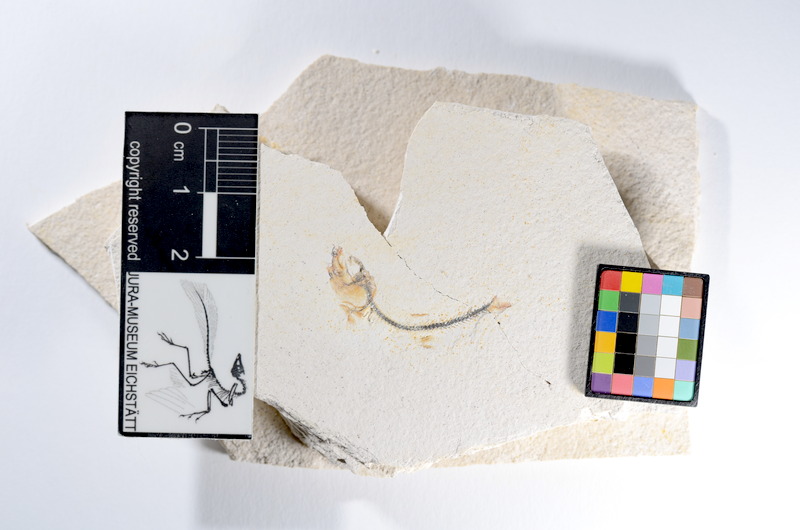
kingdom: Animalia
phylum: Chordata
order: Salmoniformes
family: Orthogonikleithridae
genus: Orthogonikleithrus
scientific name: Orthogonikleithrus hoelli
